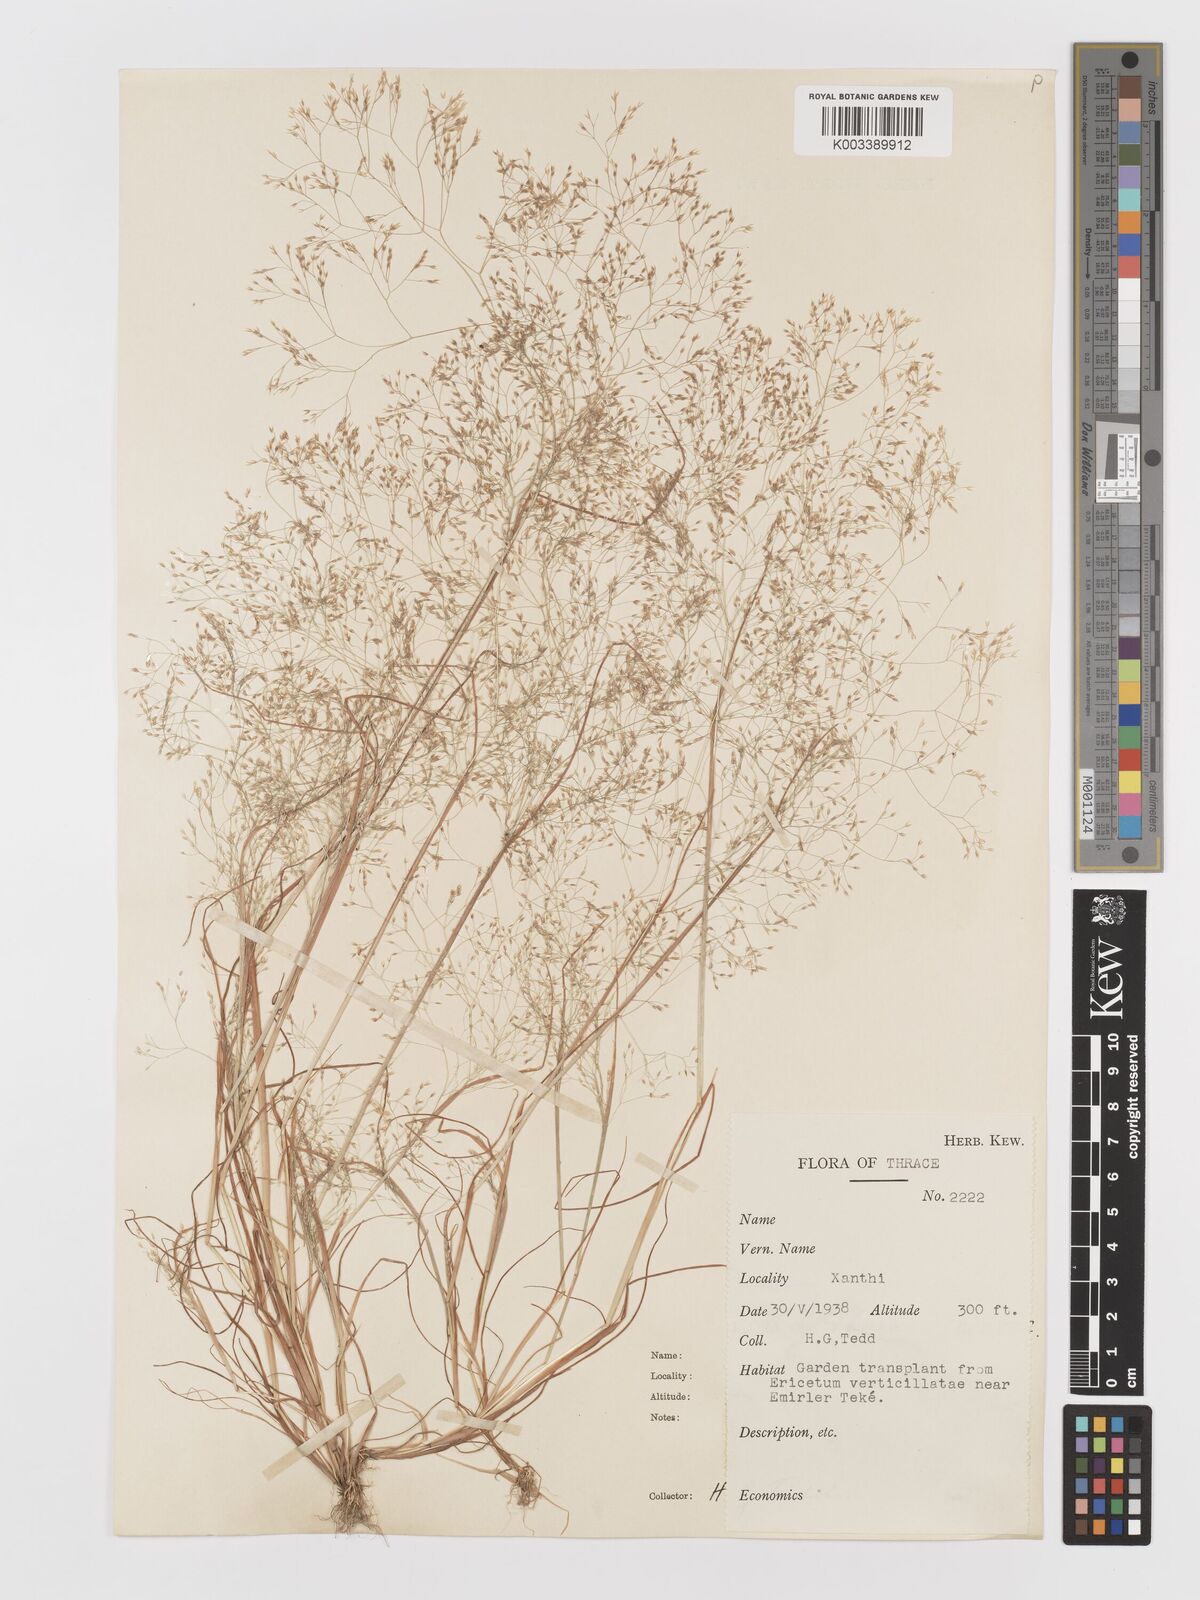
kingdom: Plantae
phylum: Tracheophyta
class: Liliopsida
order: Poales
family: Poaceae
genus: Aira
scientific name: Aira elegans
